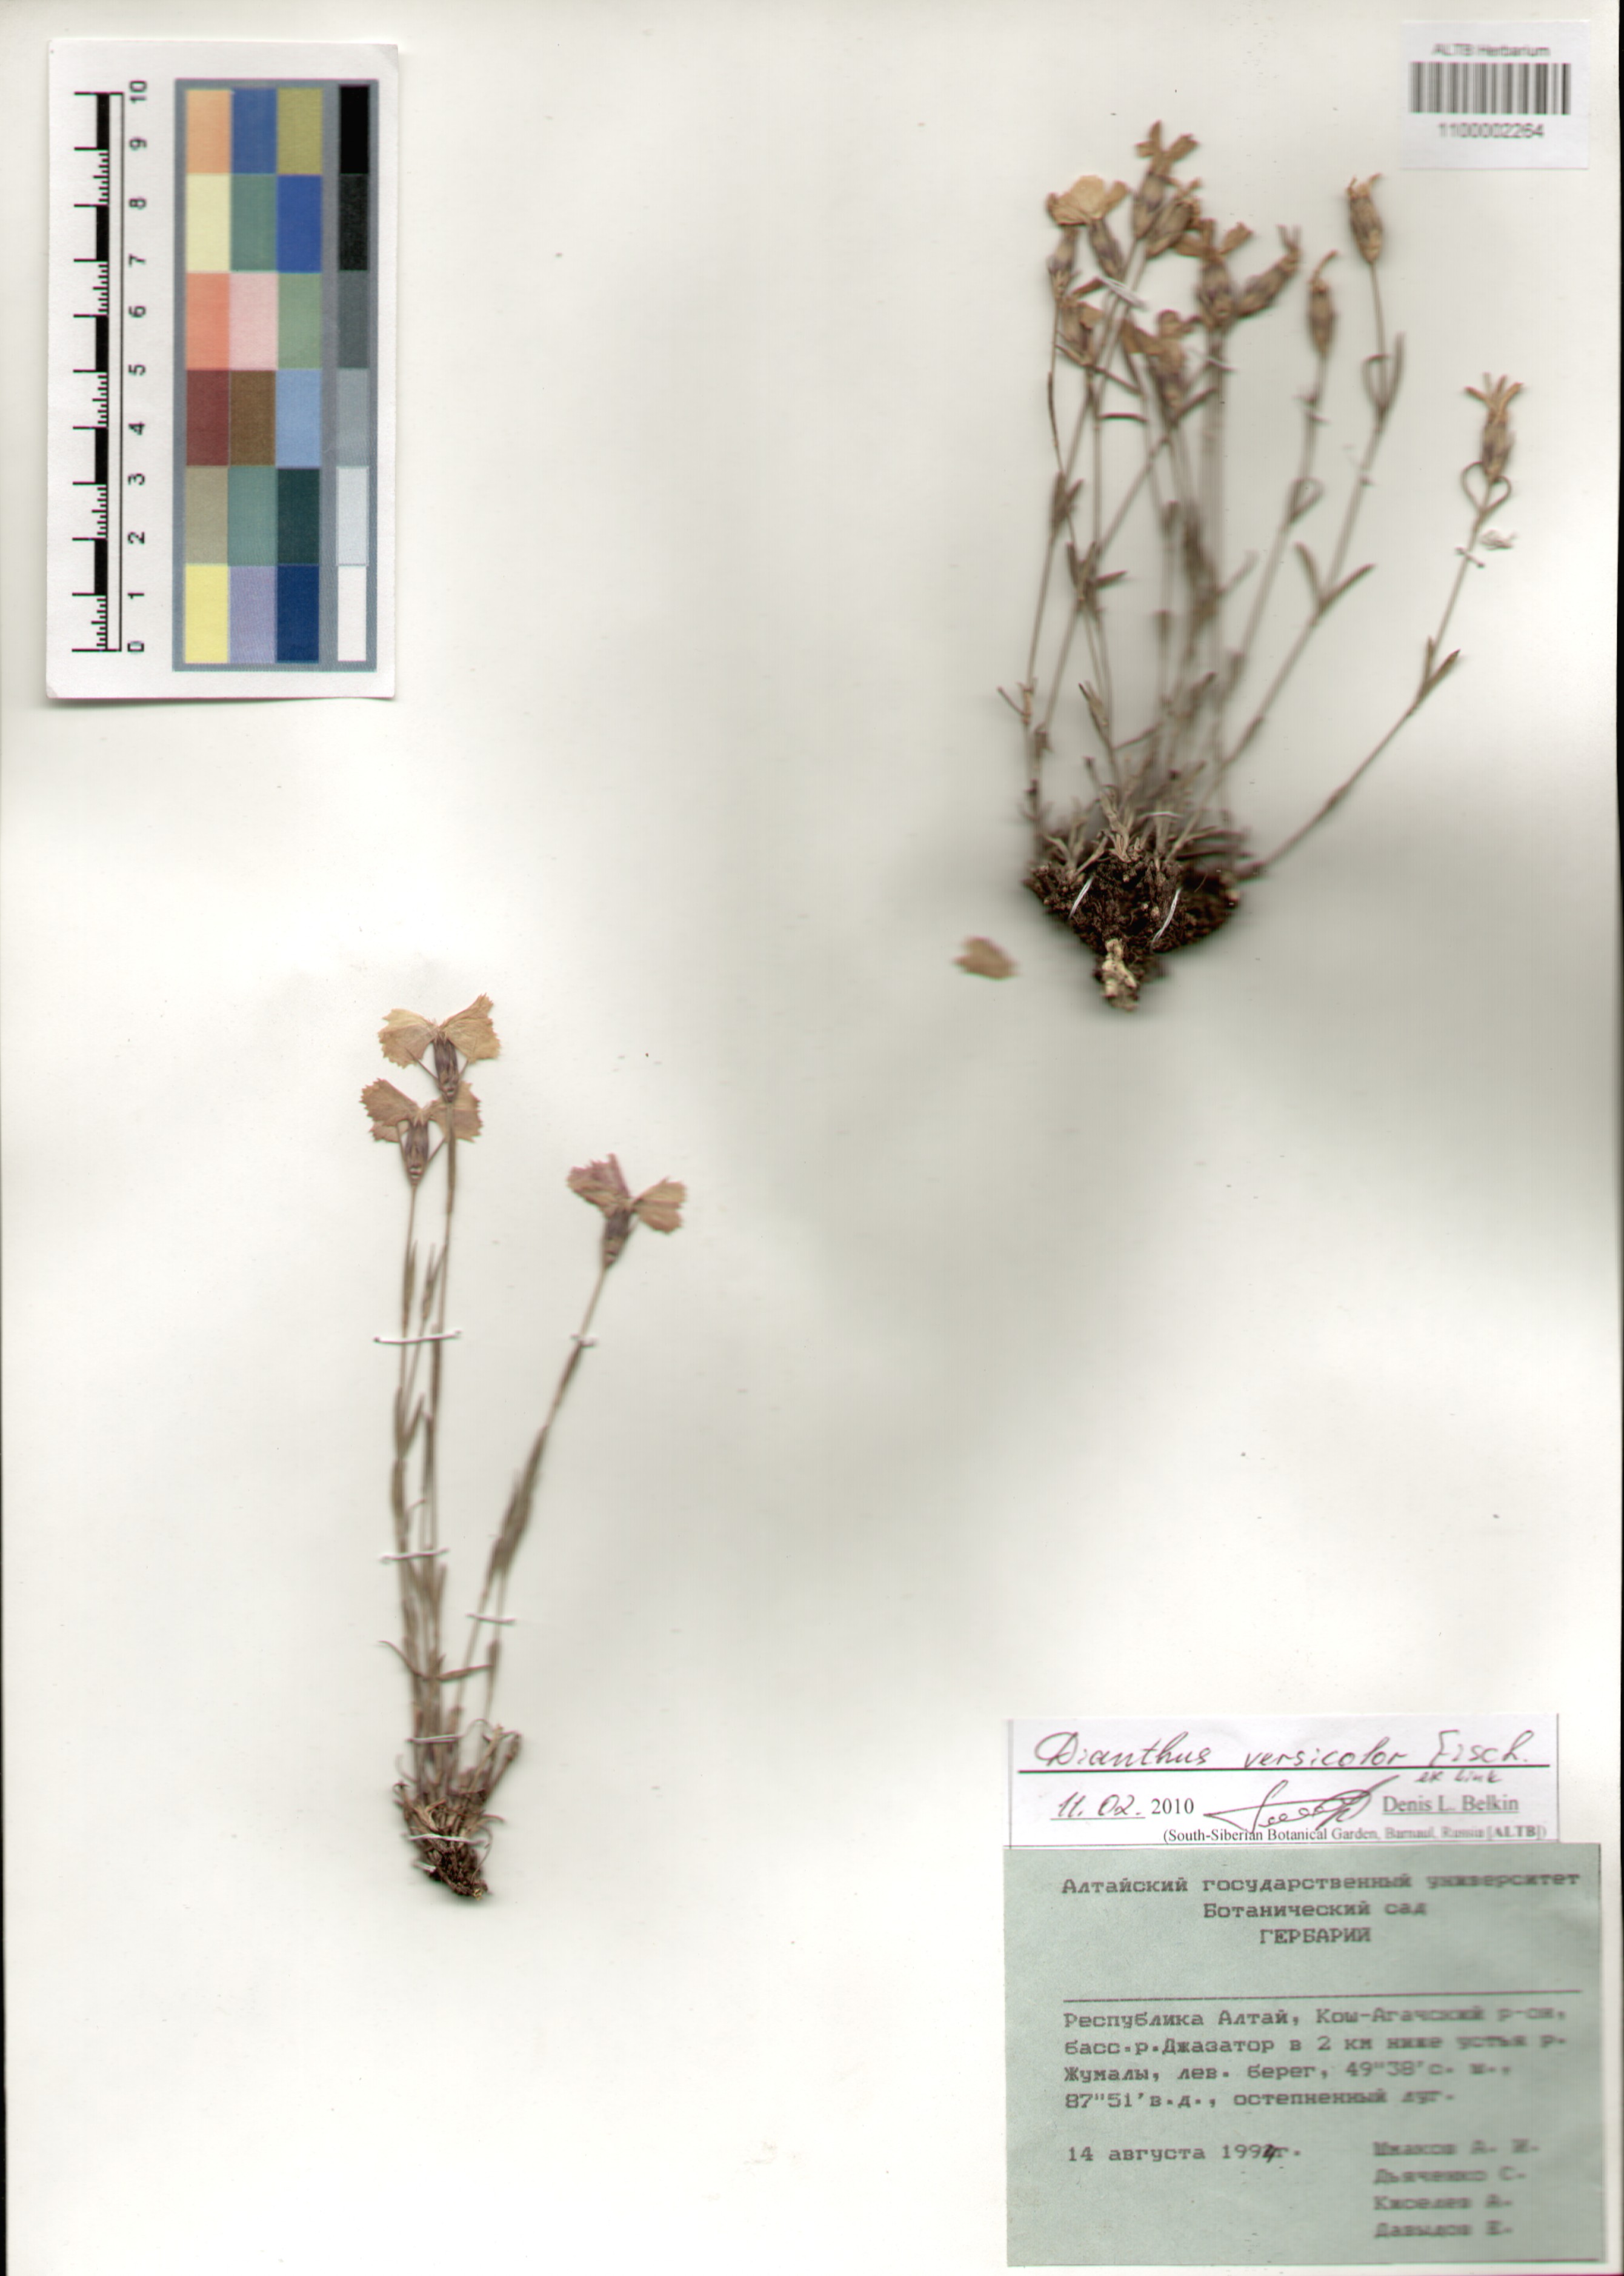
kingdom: Plantae
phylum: Tracheophyta
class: Magnoliopsida
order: Caryophyllales
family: Caryophyllaceae
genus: Dianthus
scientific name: Dianthus chinensis
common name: Rainbow pink
